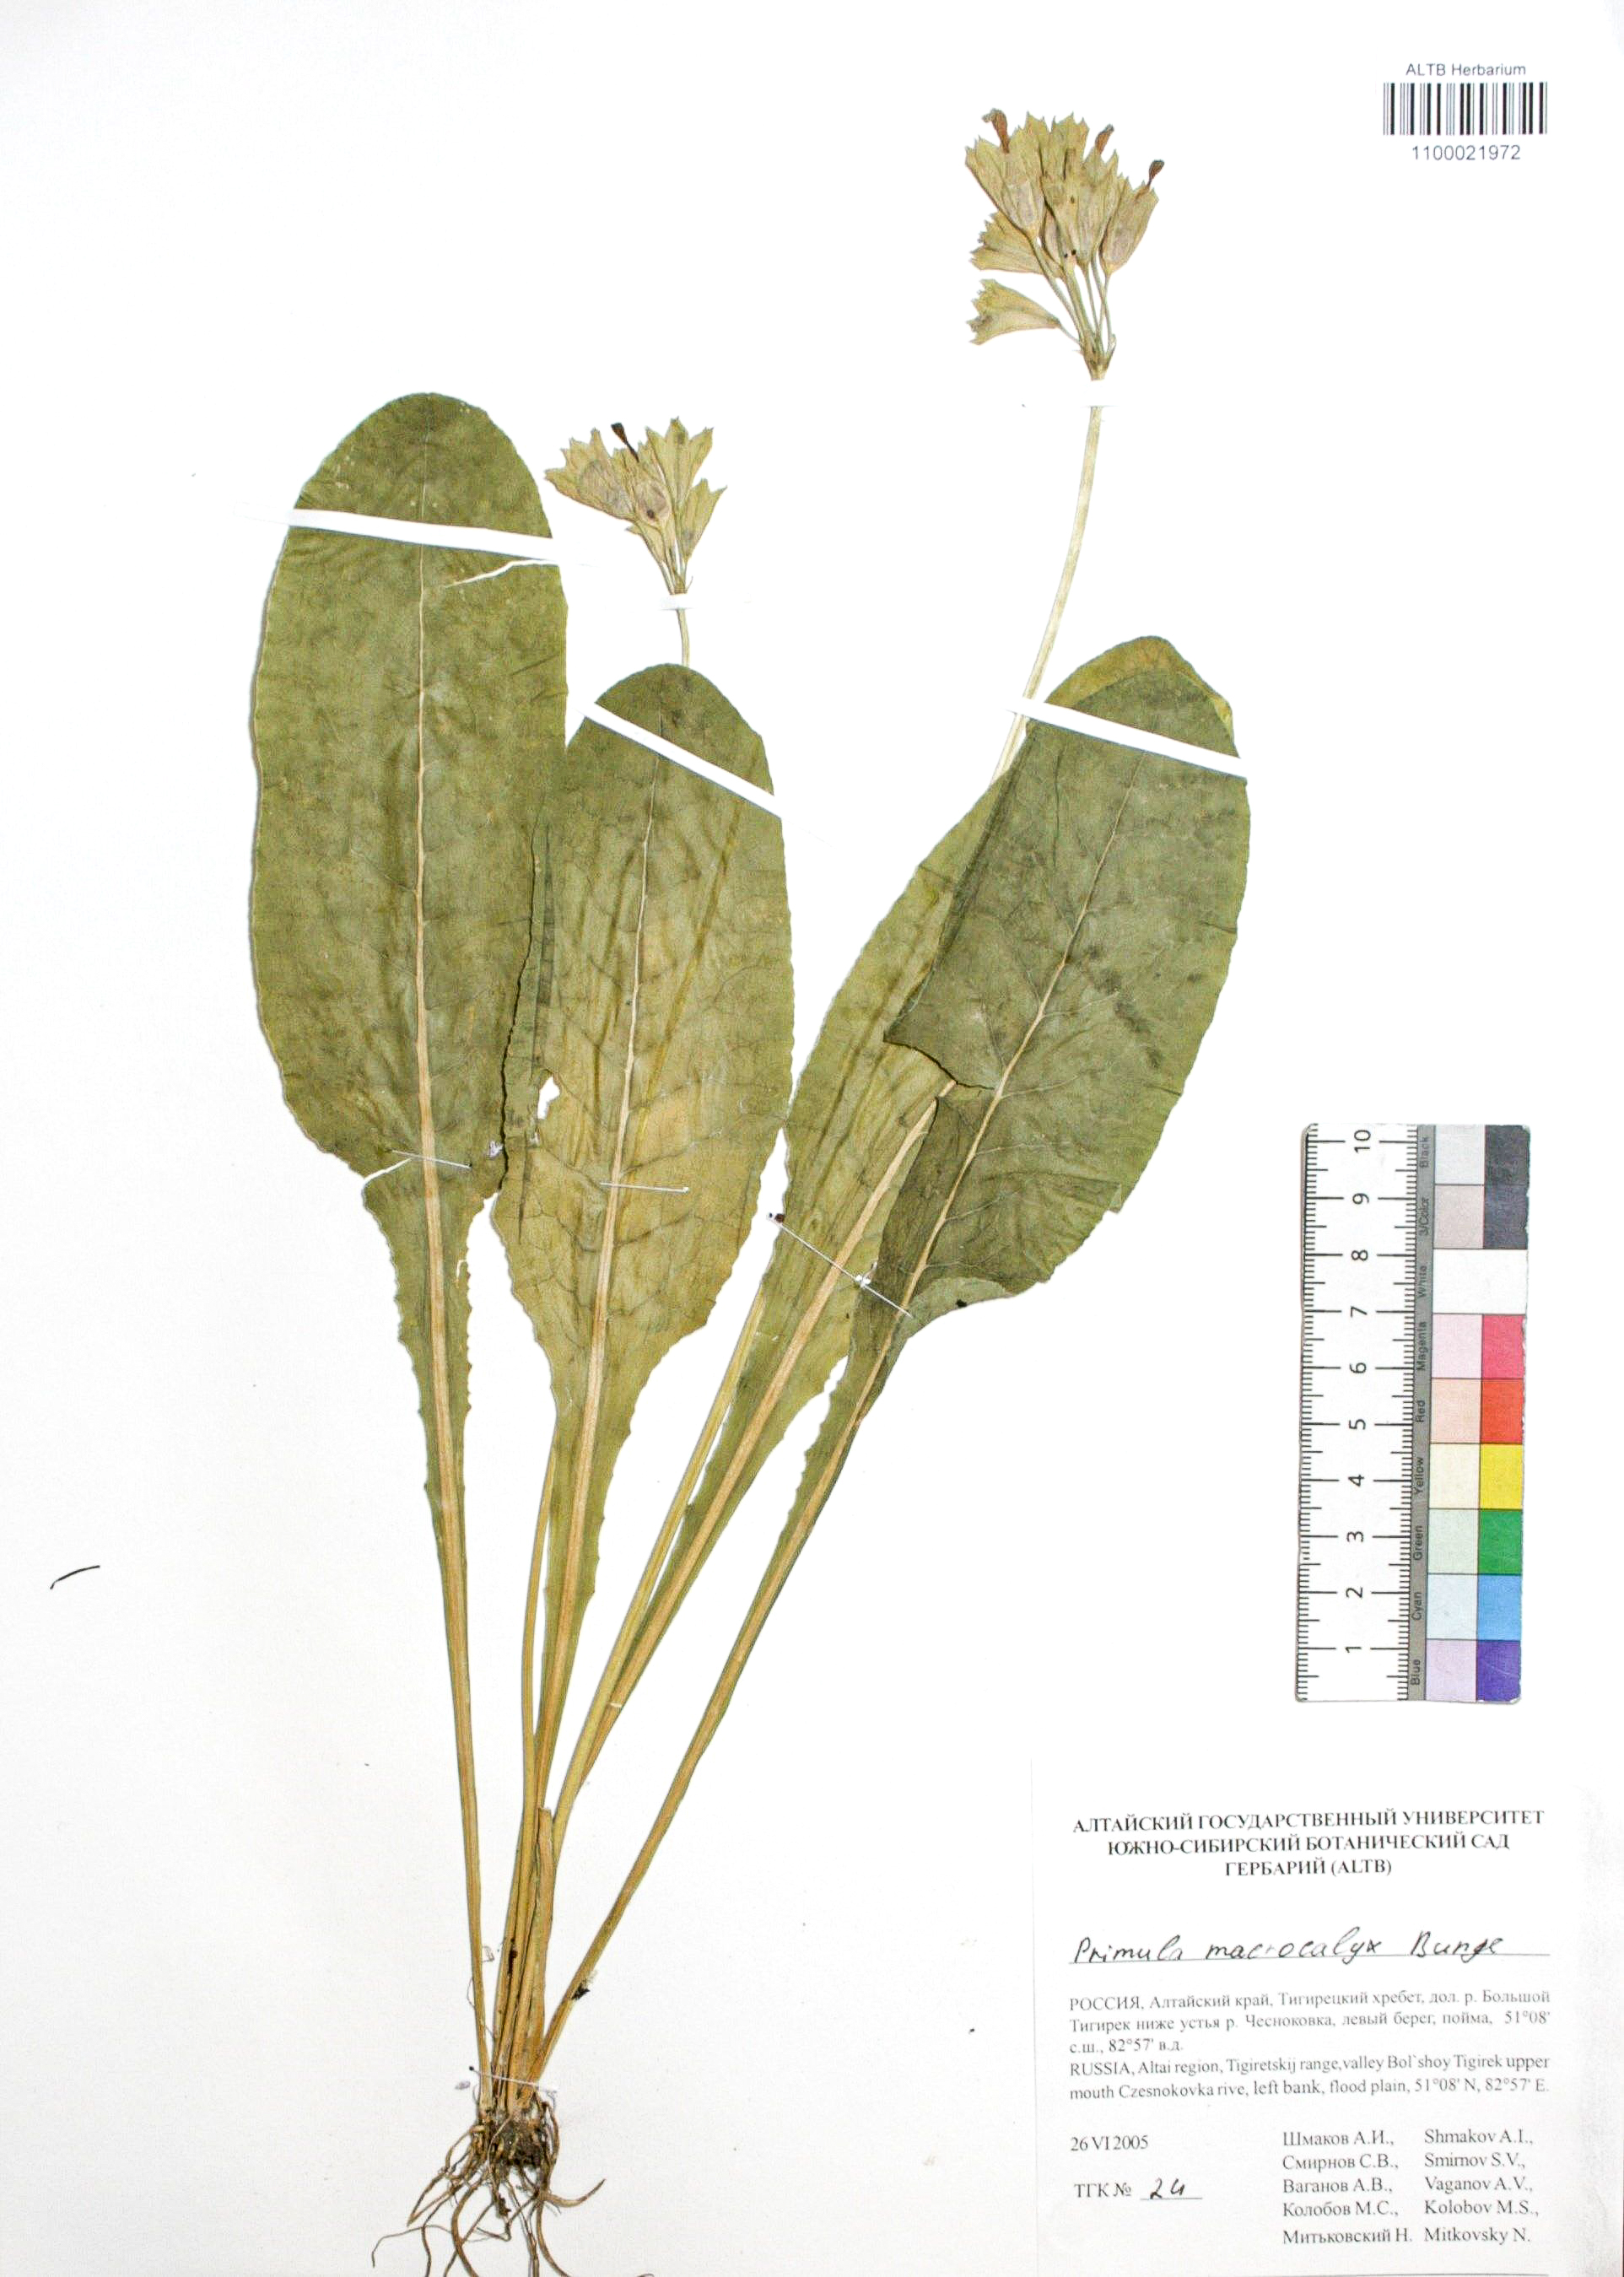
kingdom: Plantae
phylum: Tracheophyta
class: Magnoliopsida
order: Ericales
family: Primulaceae
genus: Primula
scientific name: Primula veris
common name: Cowslip
